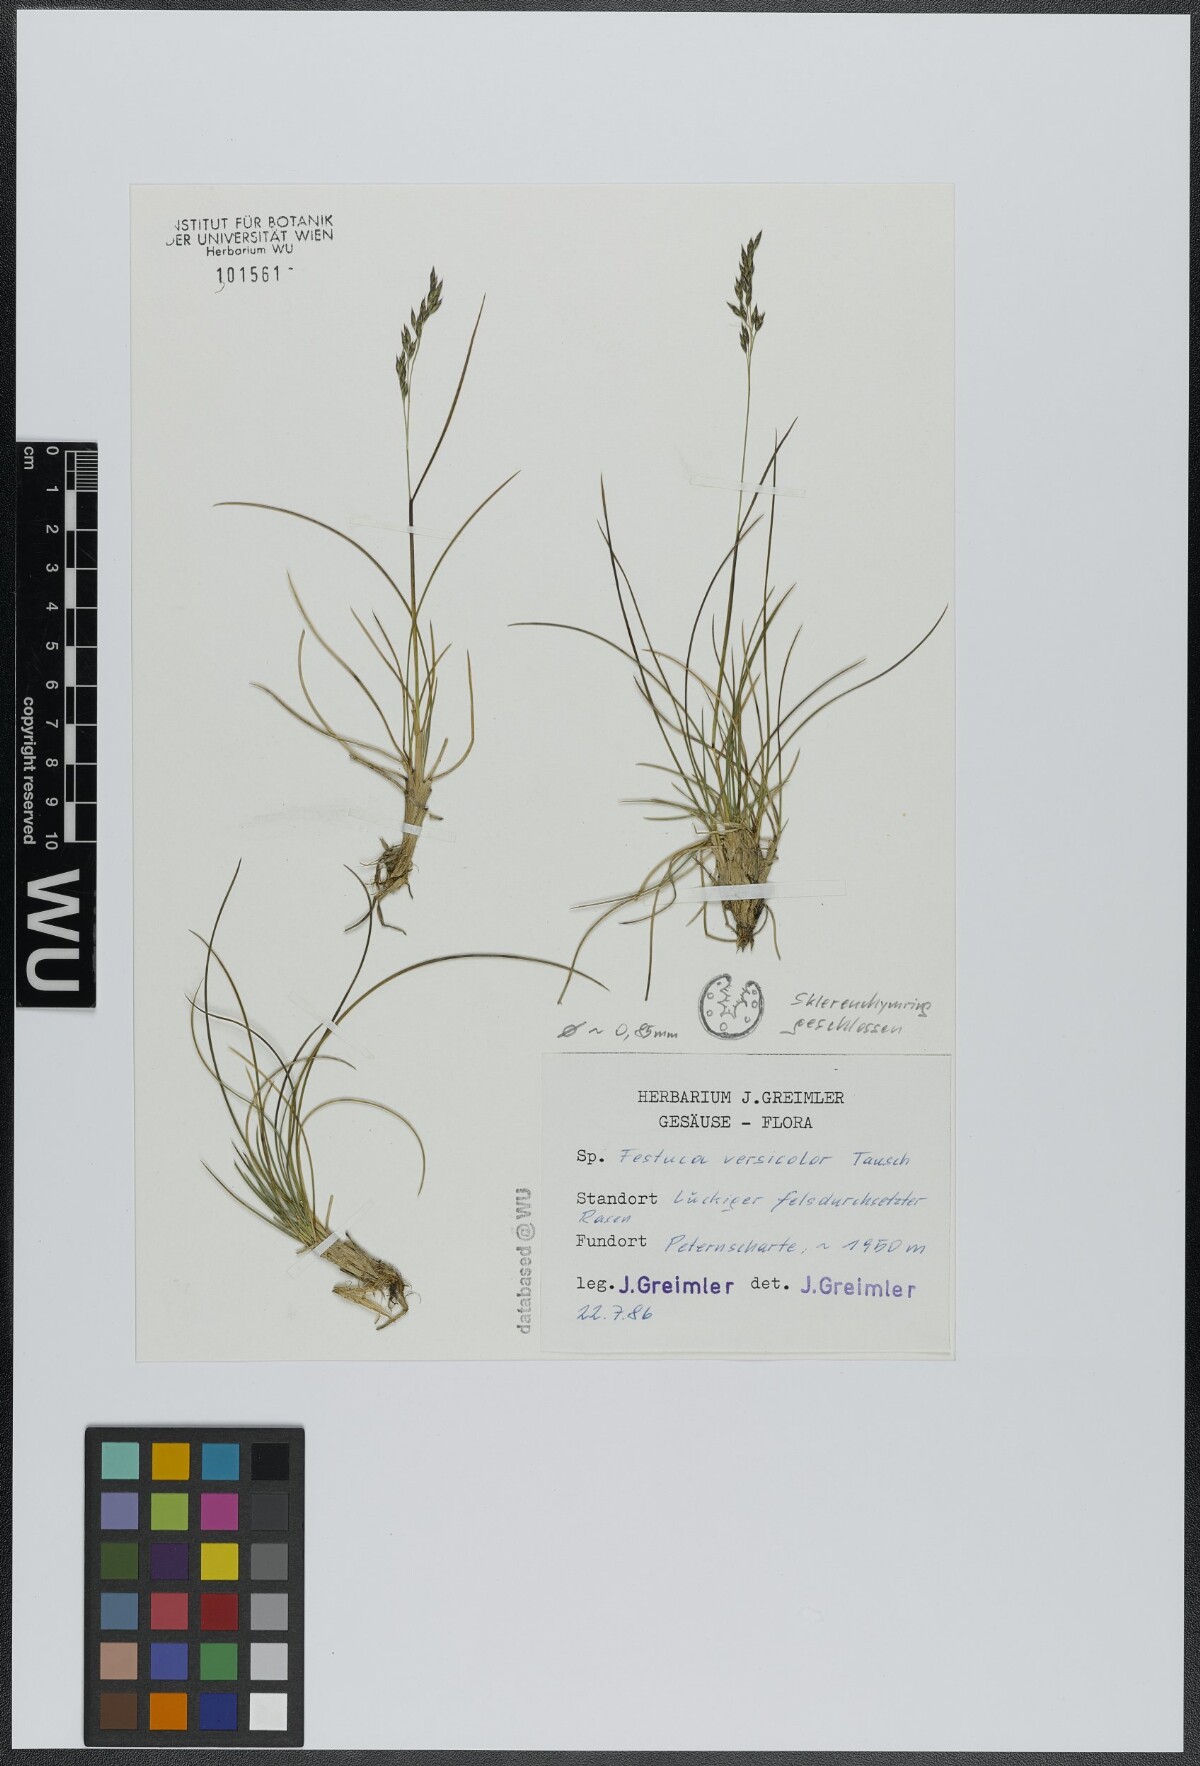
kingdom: Plantae
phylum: Tracheophyta
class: Liliopsida
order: Poales
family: Poaceae
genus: Festuca
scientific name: Festuca versicolor
